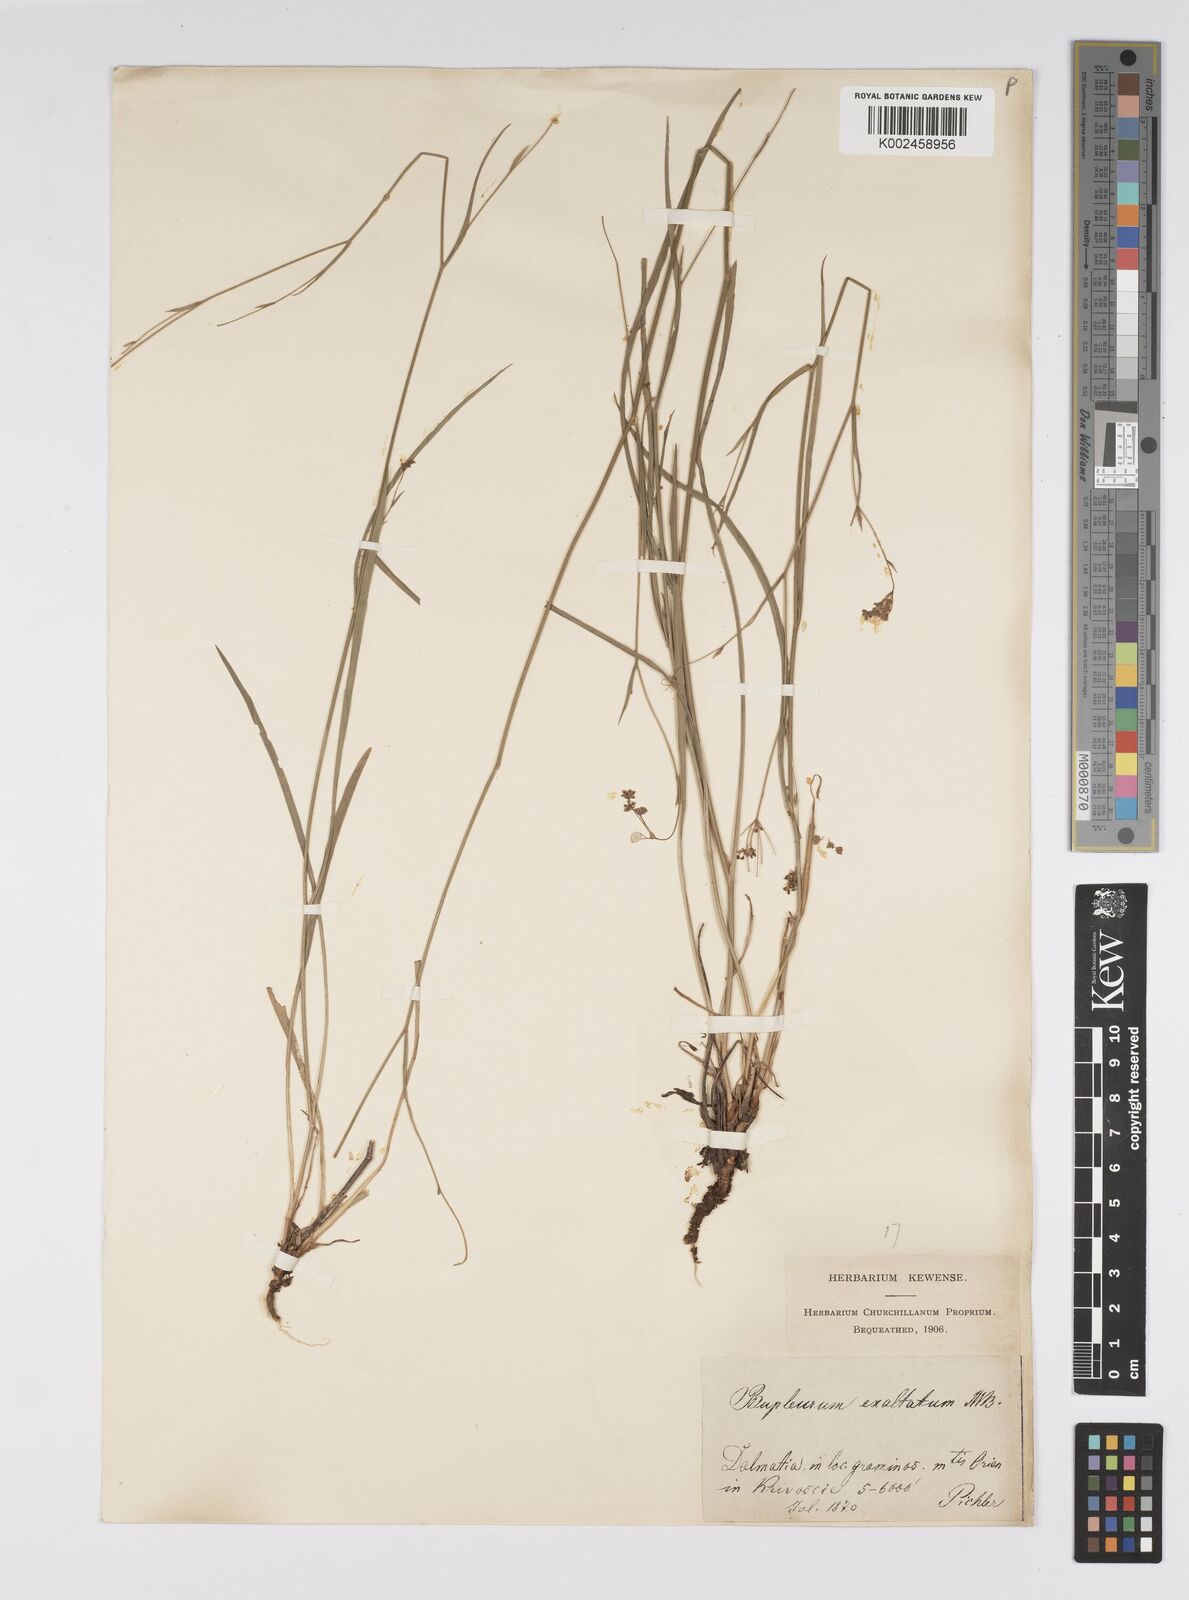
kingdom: Plantae
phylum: Tracheophyta
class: Magnoliopsida
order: Apiales
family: Apiaceae
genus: Bupleurum
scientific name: Bupleurum falcatum
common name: Sickle-leaved hare's-ear
